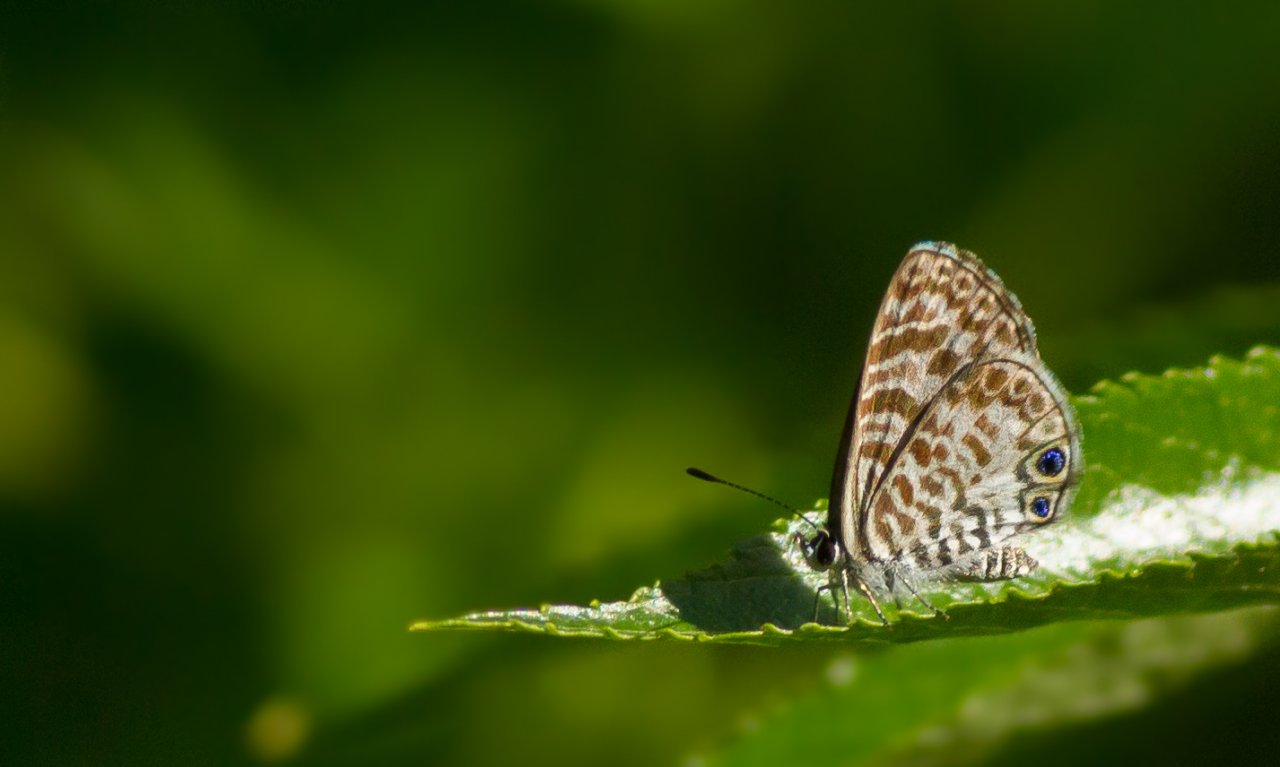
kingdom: Animalia
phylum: Arthropoda
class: Insecta
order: Lepidoptera
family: Lycaenidae
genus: Leptotes
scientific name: Leptotes cassius
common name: Cassius Blue
